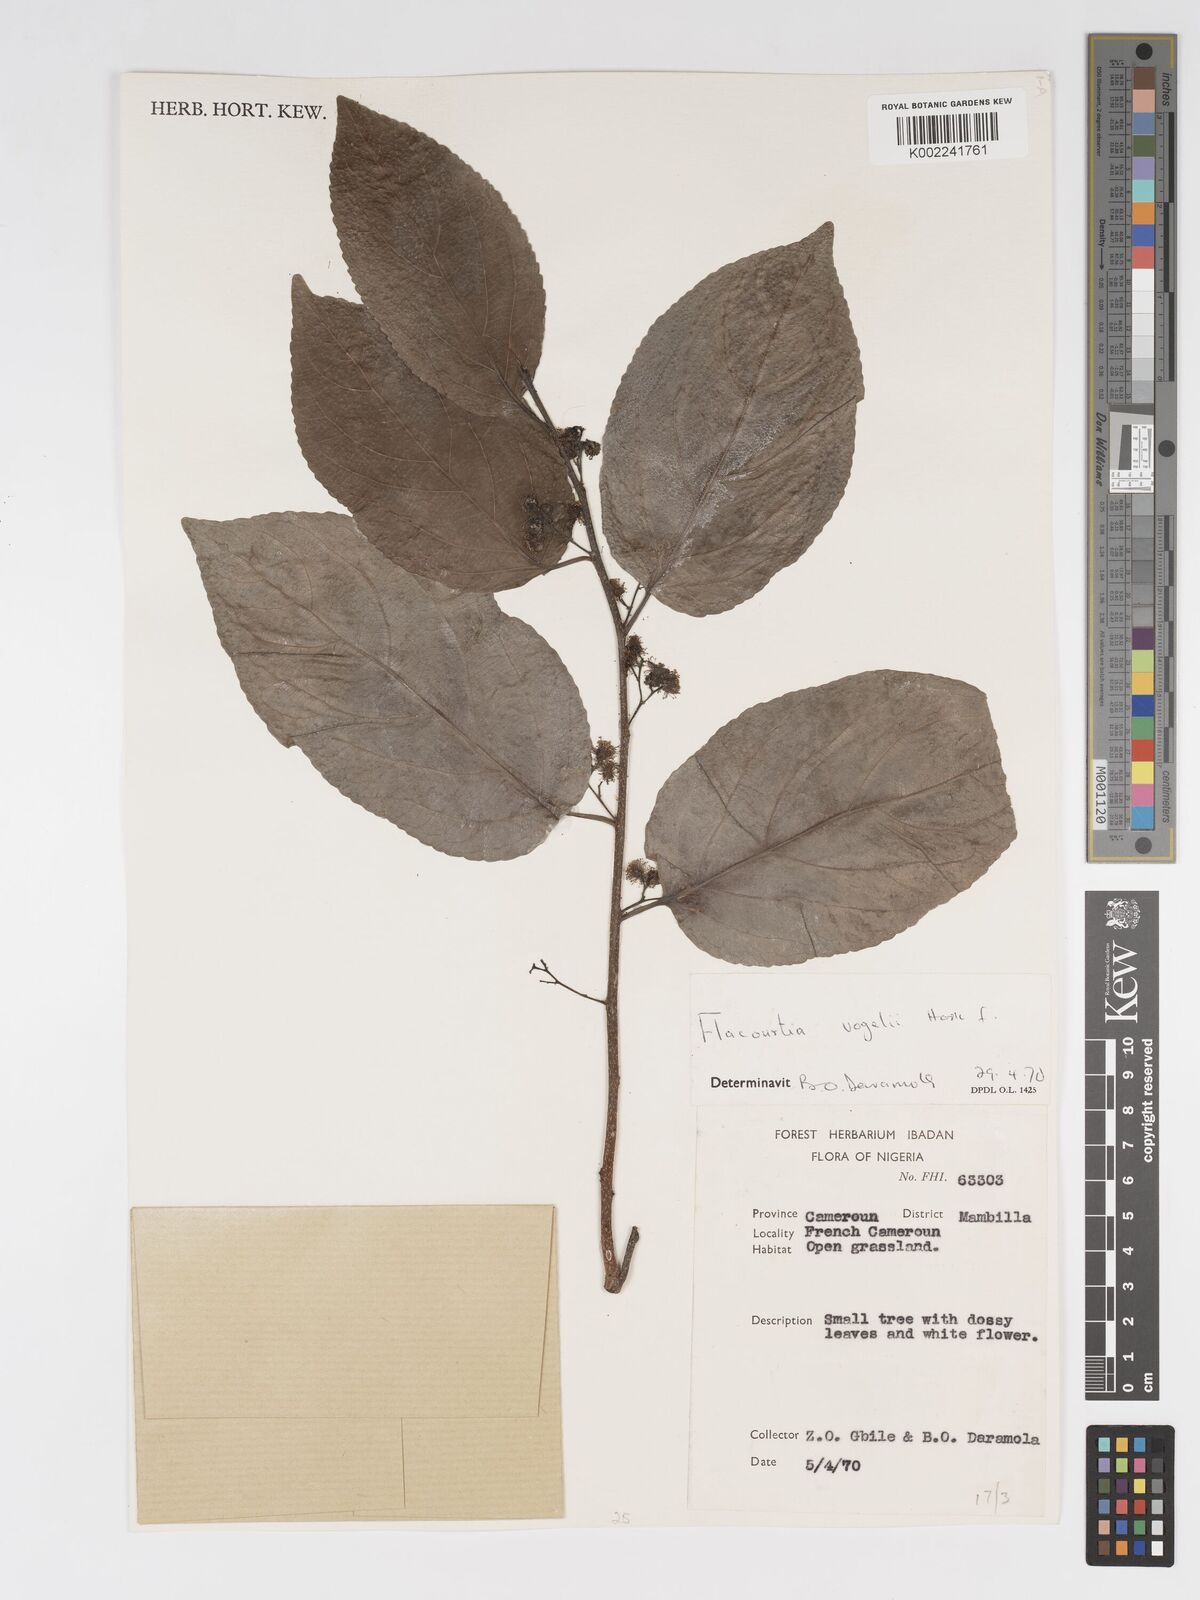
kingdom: Plantae
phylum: Tracheophyta
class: Magnoliopsida
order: Malpighiales
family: Salicaceae
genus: Flacourtia
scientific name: Flacourtia vogelii
